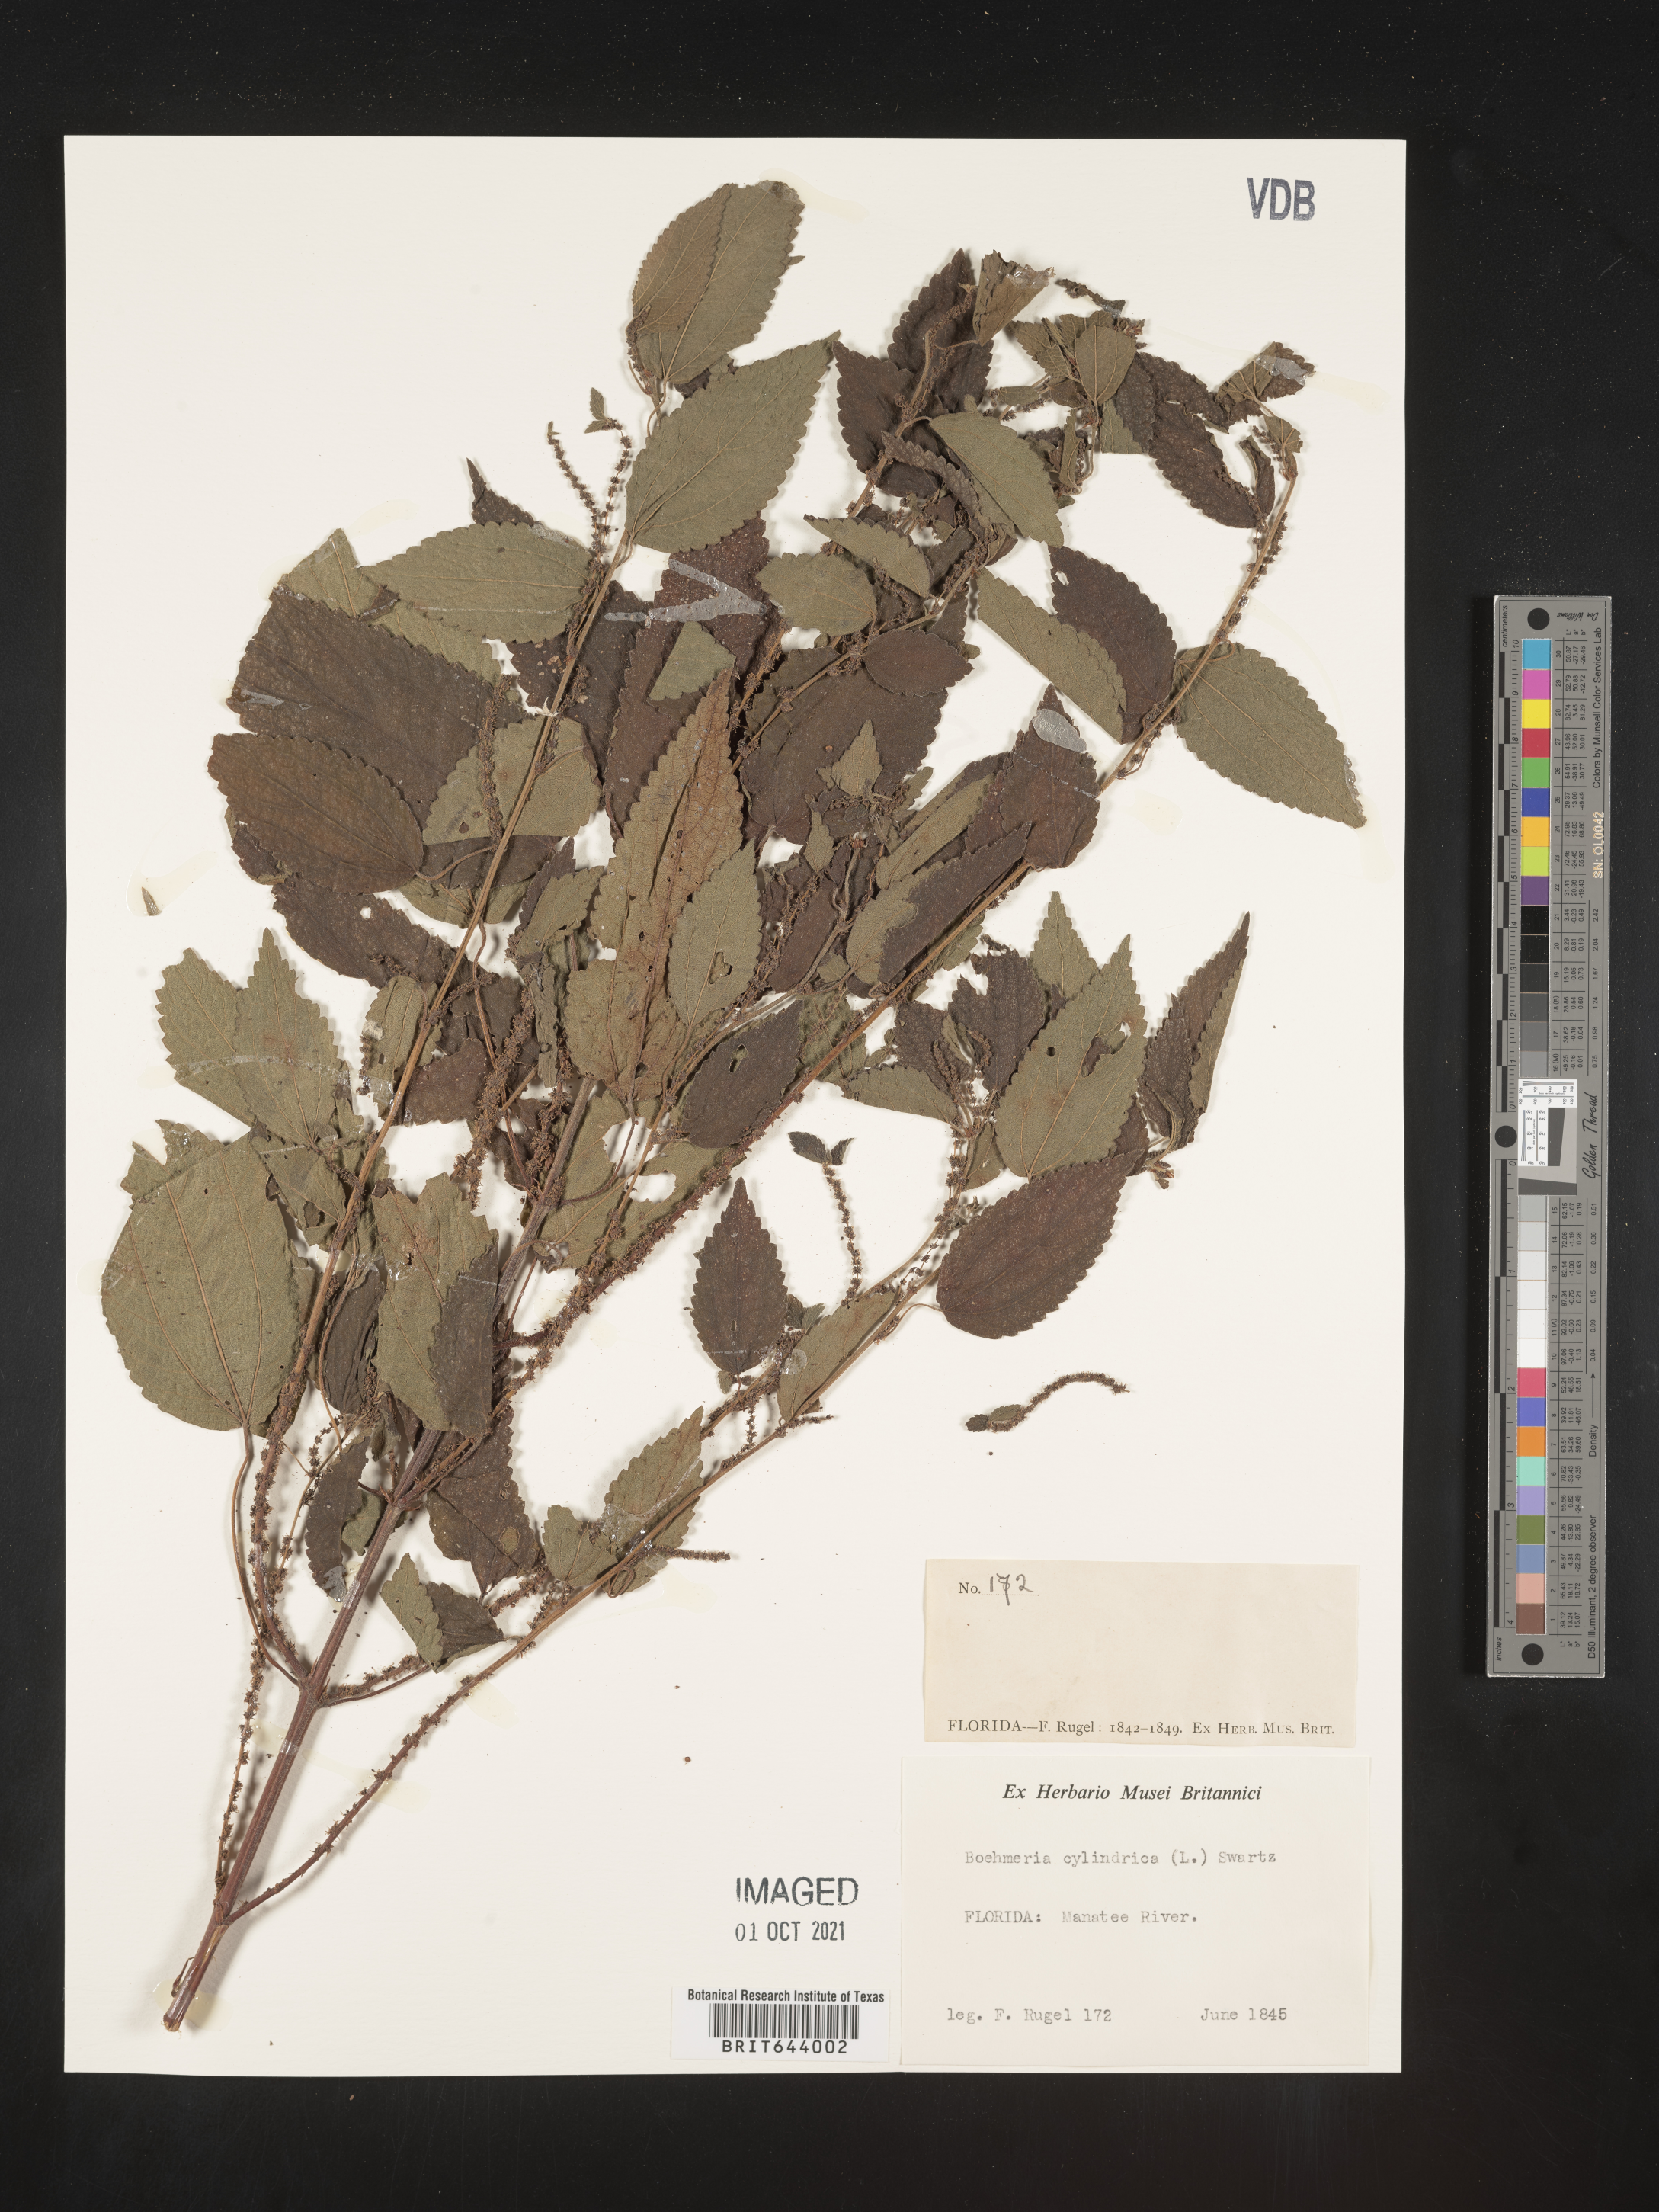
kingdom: Plantae
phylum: Tracheophyta
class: Magnoliopsida
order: Rosales
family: Urticaceae
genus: Boehmeria
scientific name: Boehmeria
